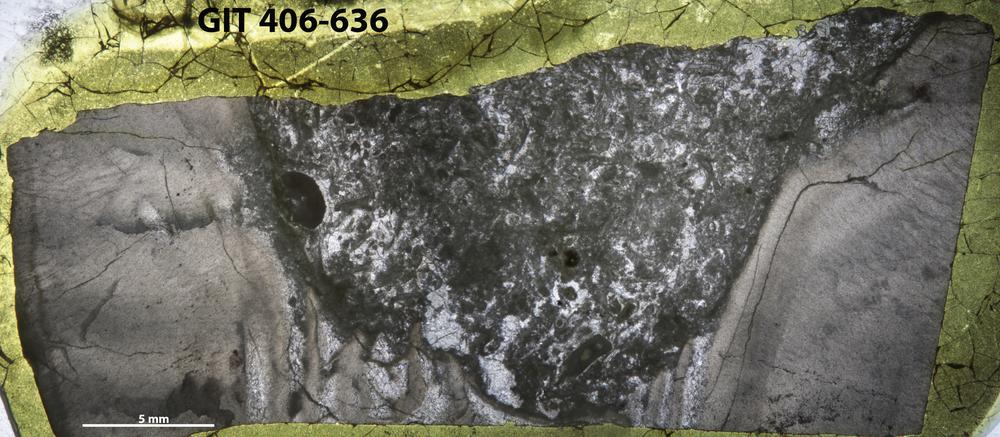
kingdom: Animalia
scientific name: Animalia
